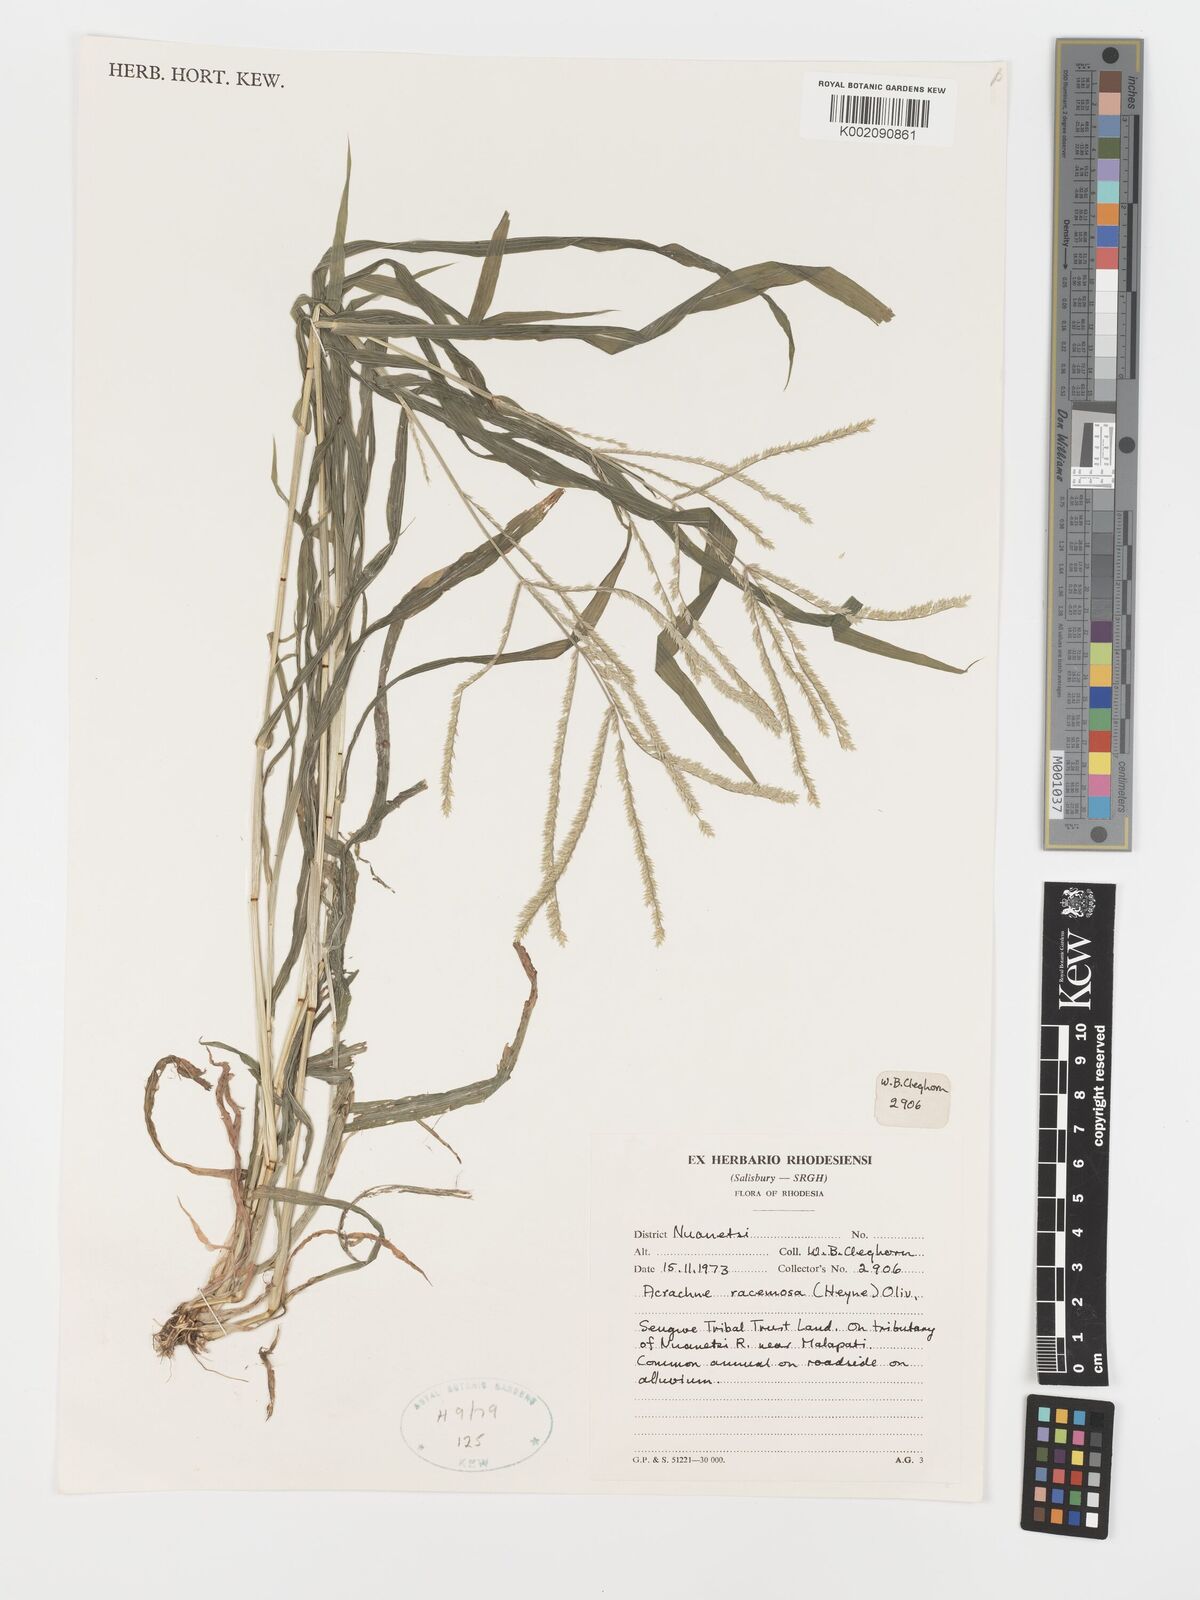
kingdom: Plantae
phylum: Tracheophyta
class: Liliopsida
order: Poales
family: Poaceae
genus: Acrachne
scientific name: Acrachne racemosa
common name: Goosegrass
